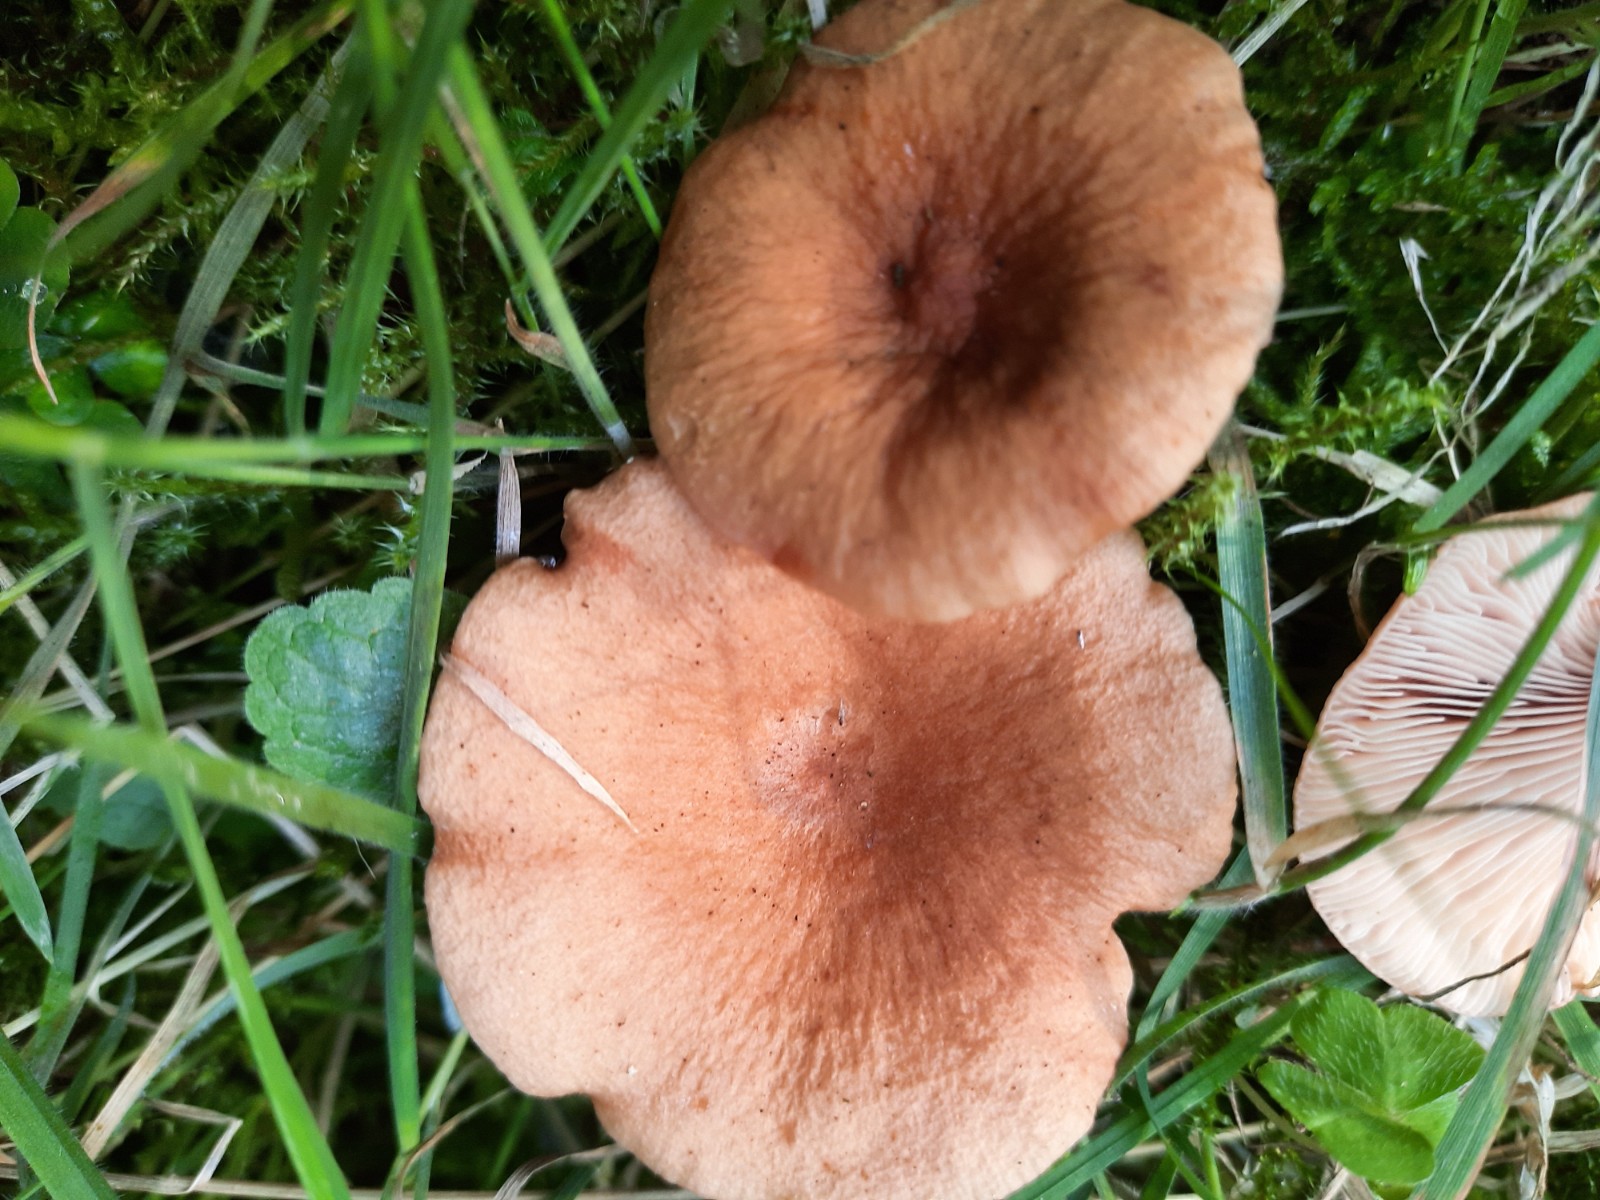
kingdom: Fungi
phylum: Basidiomycota
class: Agaricomycetes
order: Russulales
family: Russulaceae
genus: Lactarius
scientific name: Lactarius tabidus
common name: rynket mælkehat
